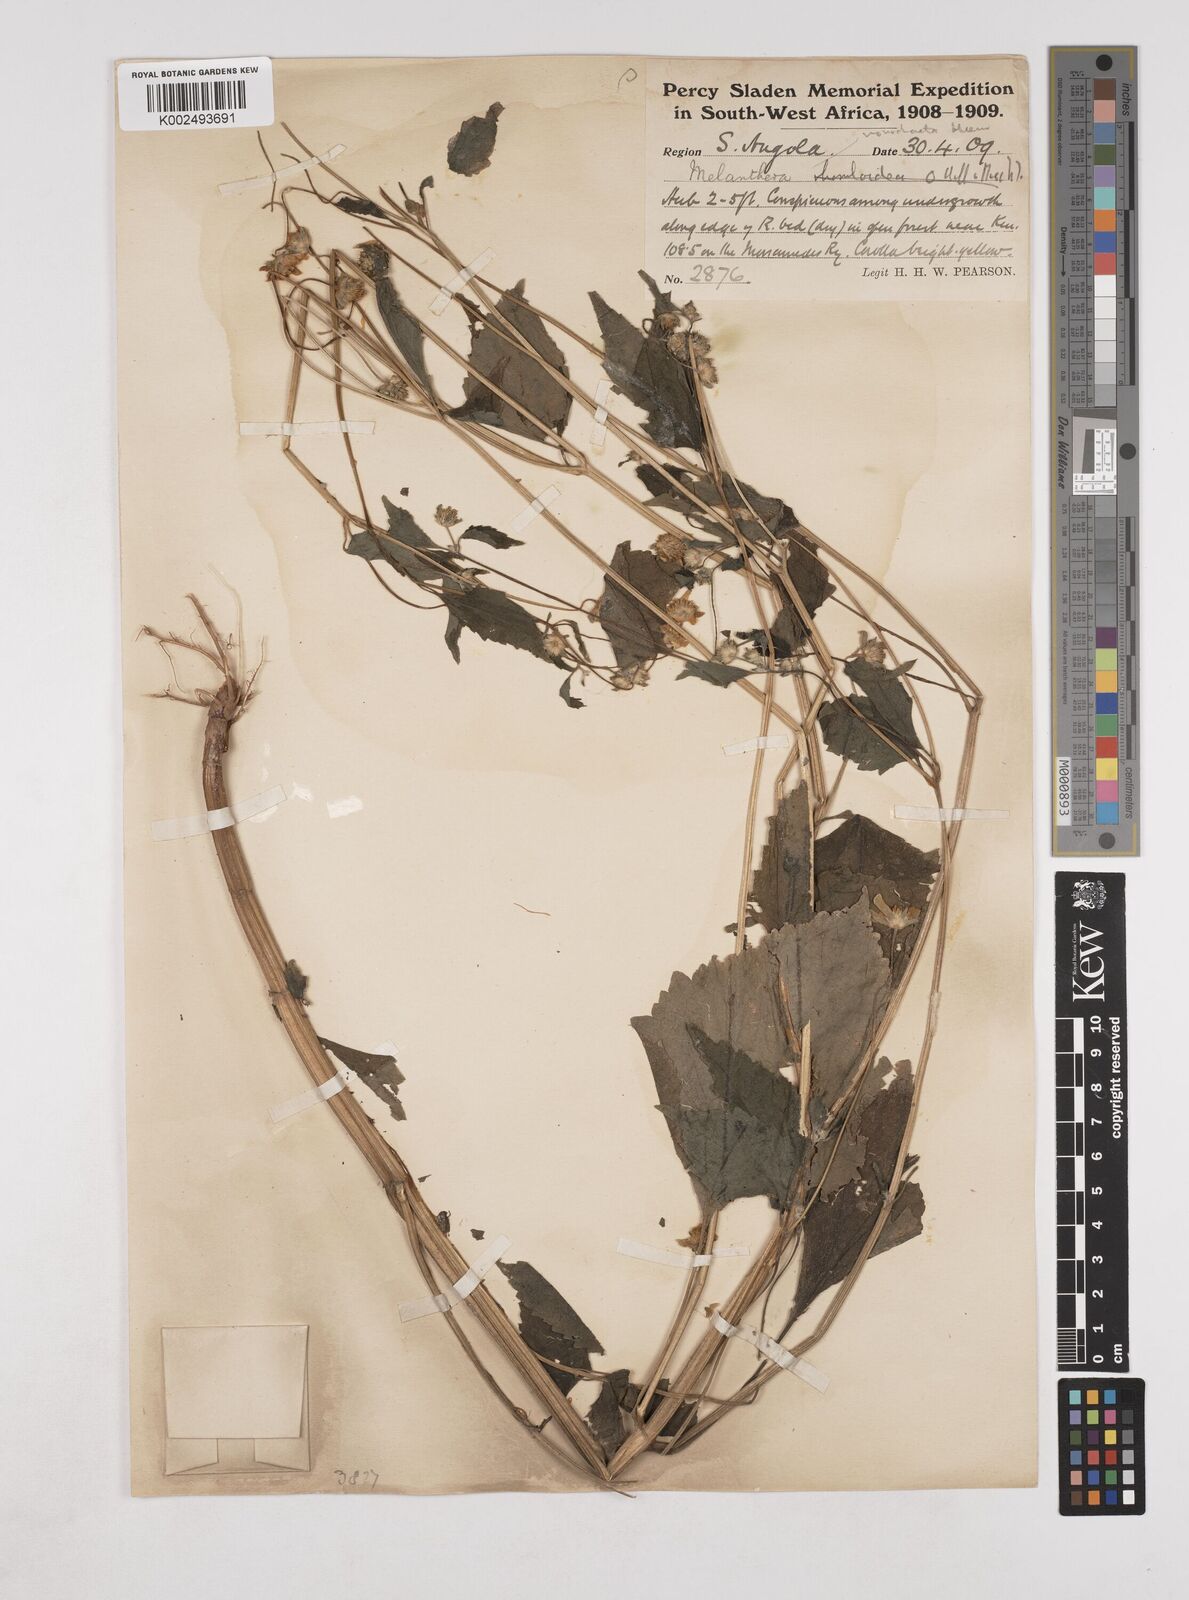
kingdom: Plantae
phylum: Tracheophyta
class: Magnoliopsida
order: Asterales
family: Asteraceae
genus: Lipotriche
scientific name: Lipotriche marlothiana
